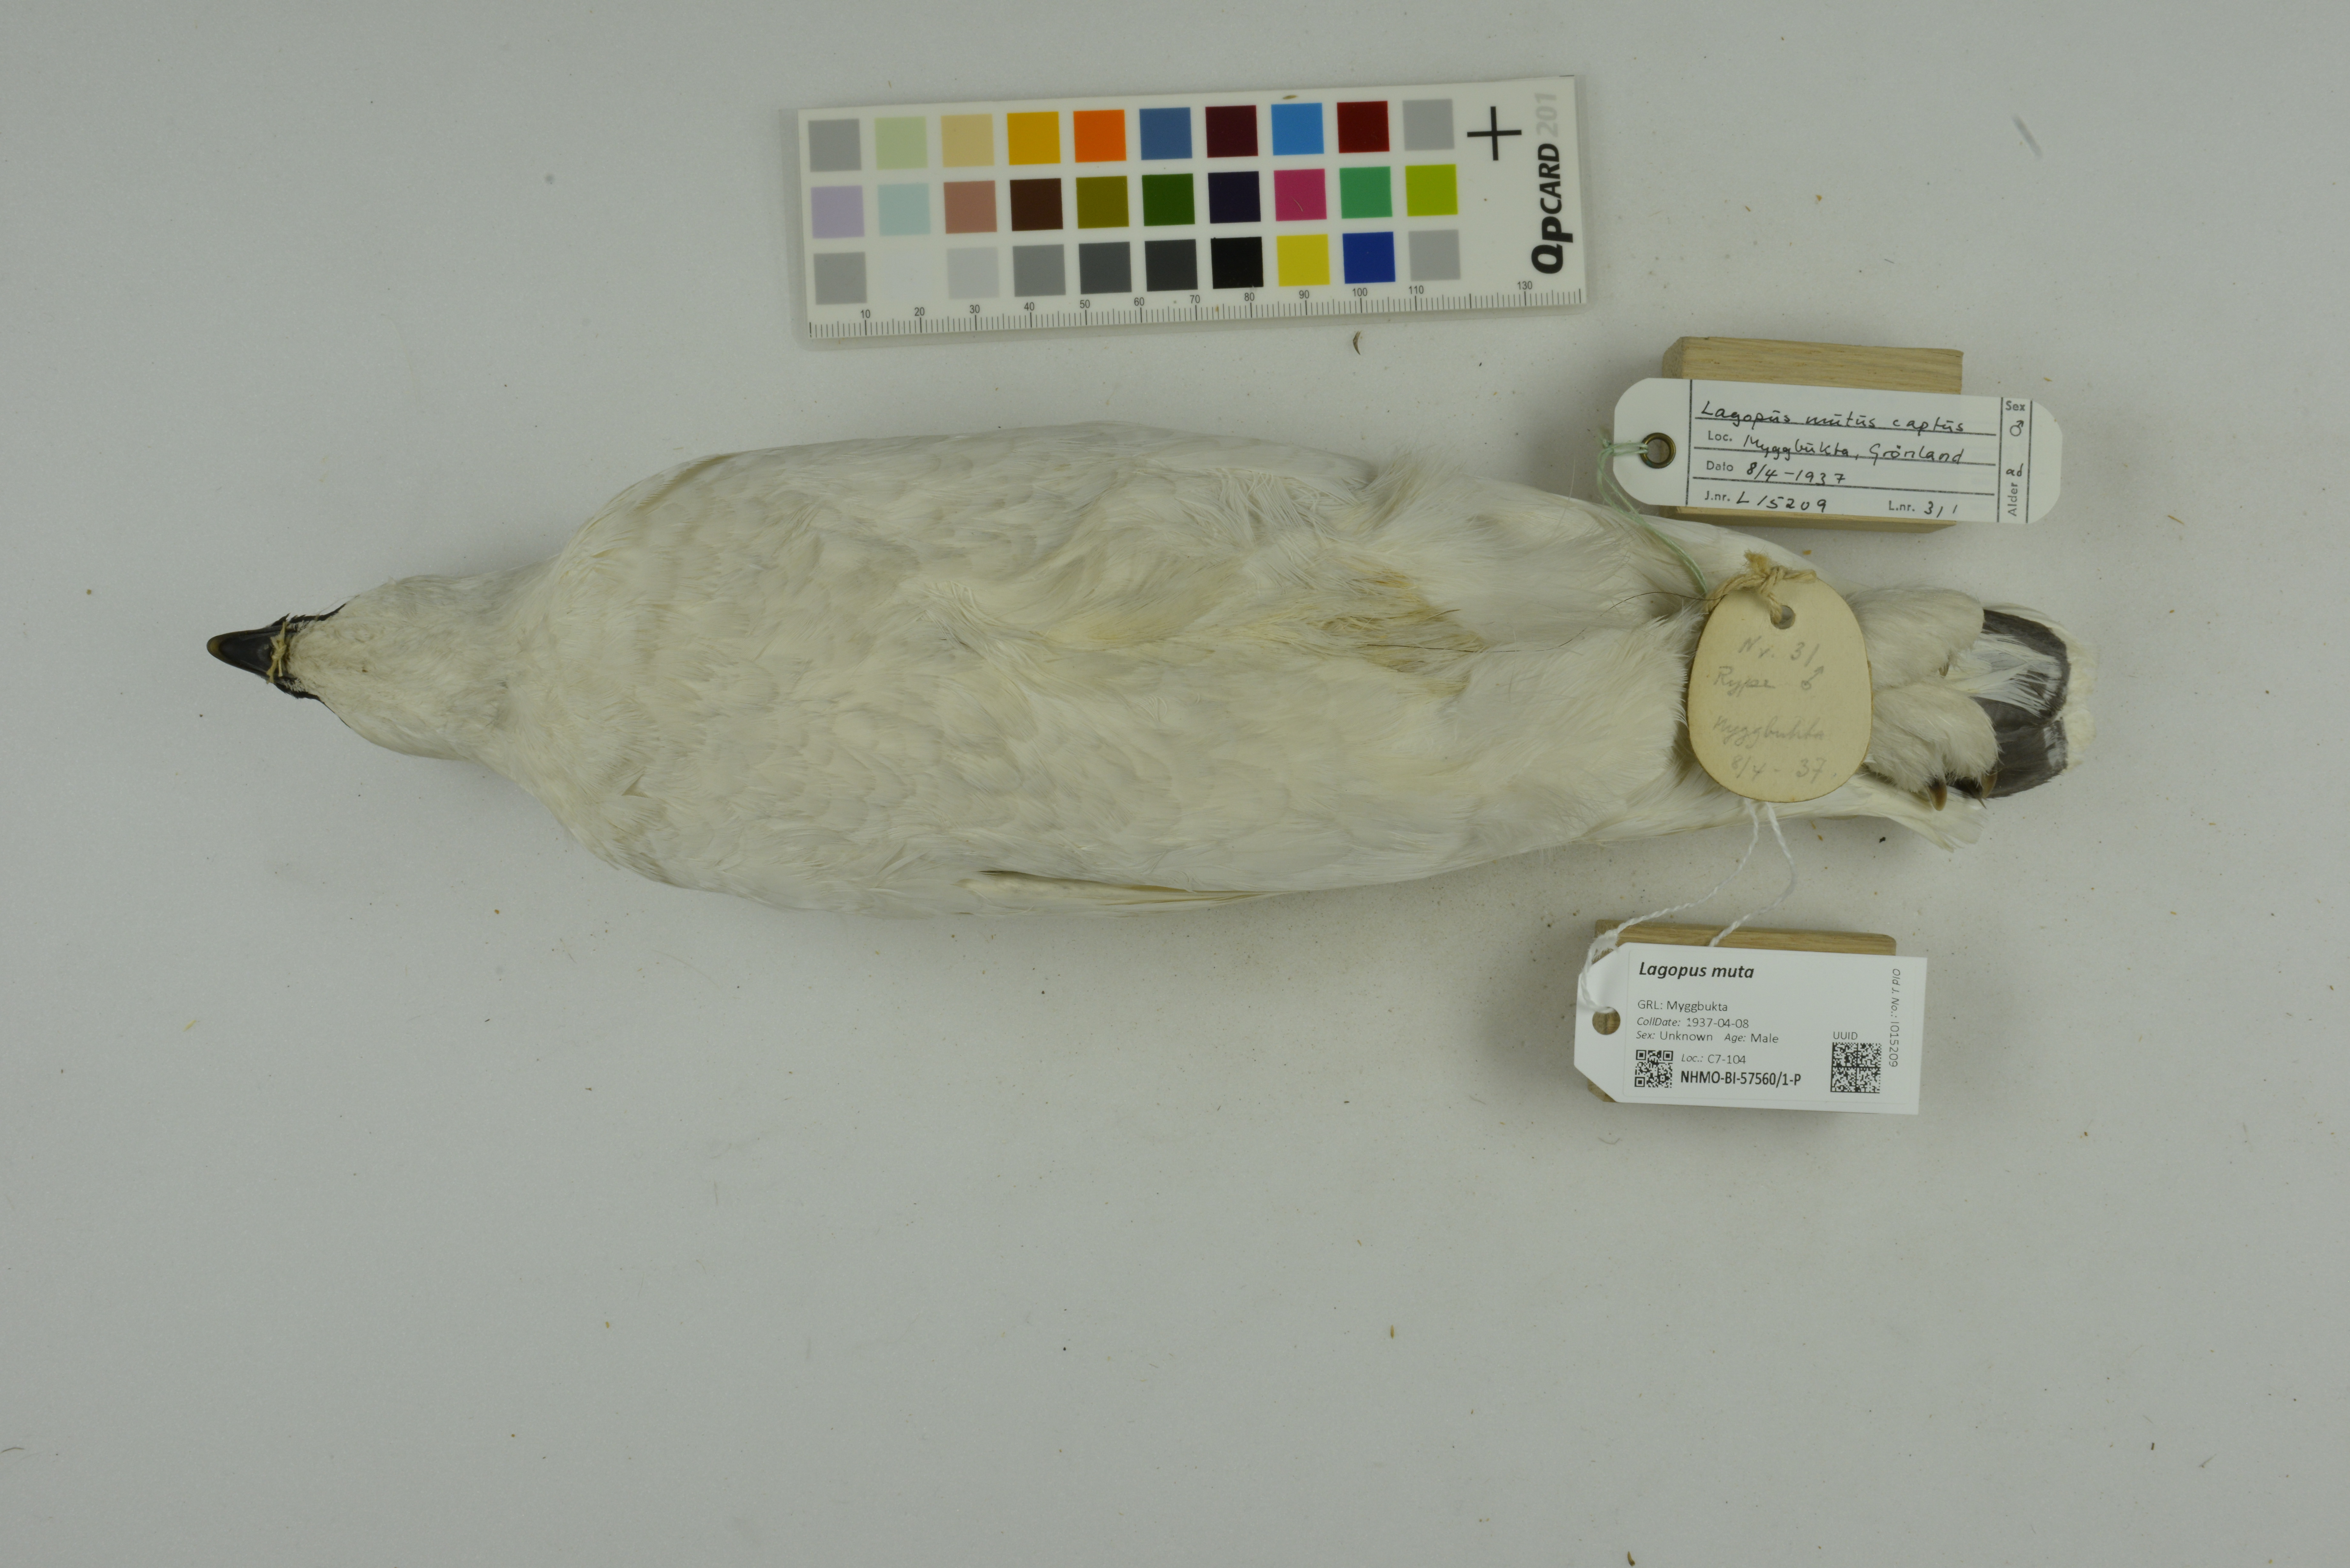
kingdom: Animalia
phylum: Chordata
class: Aves
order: Galliformes
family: Phasianidae
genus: Lagopus
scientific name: Lagopus muta
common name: Rock ptarmigan
